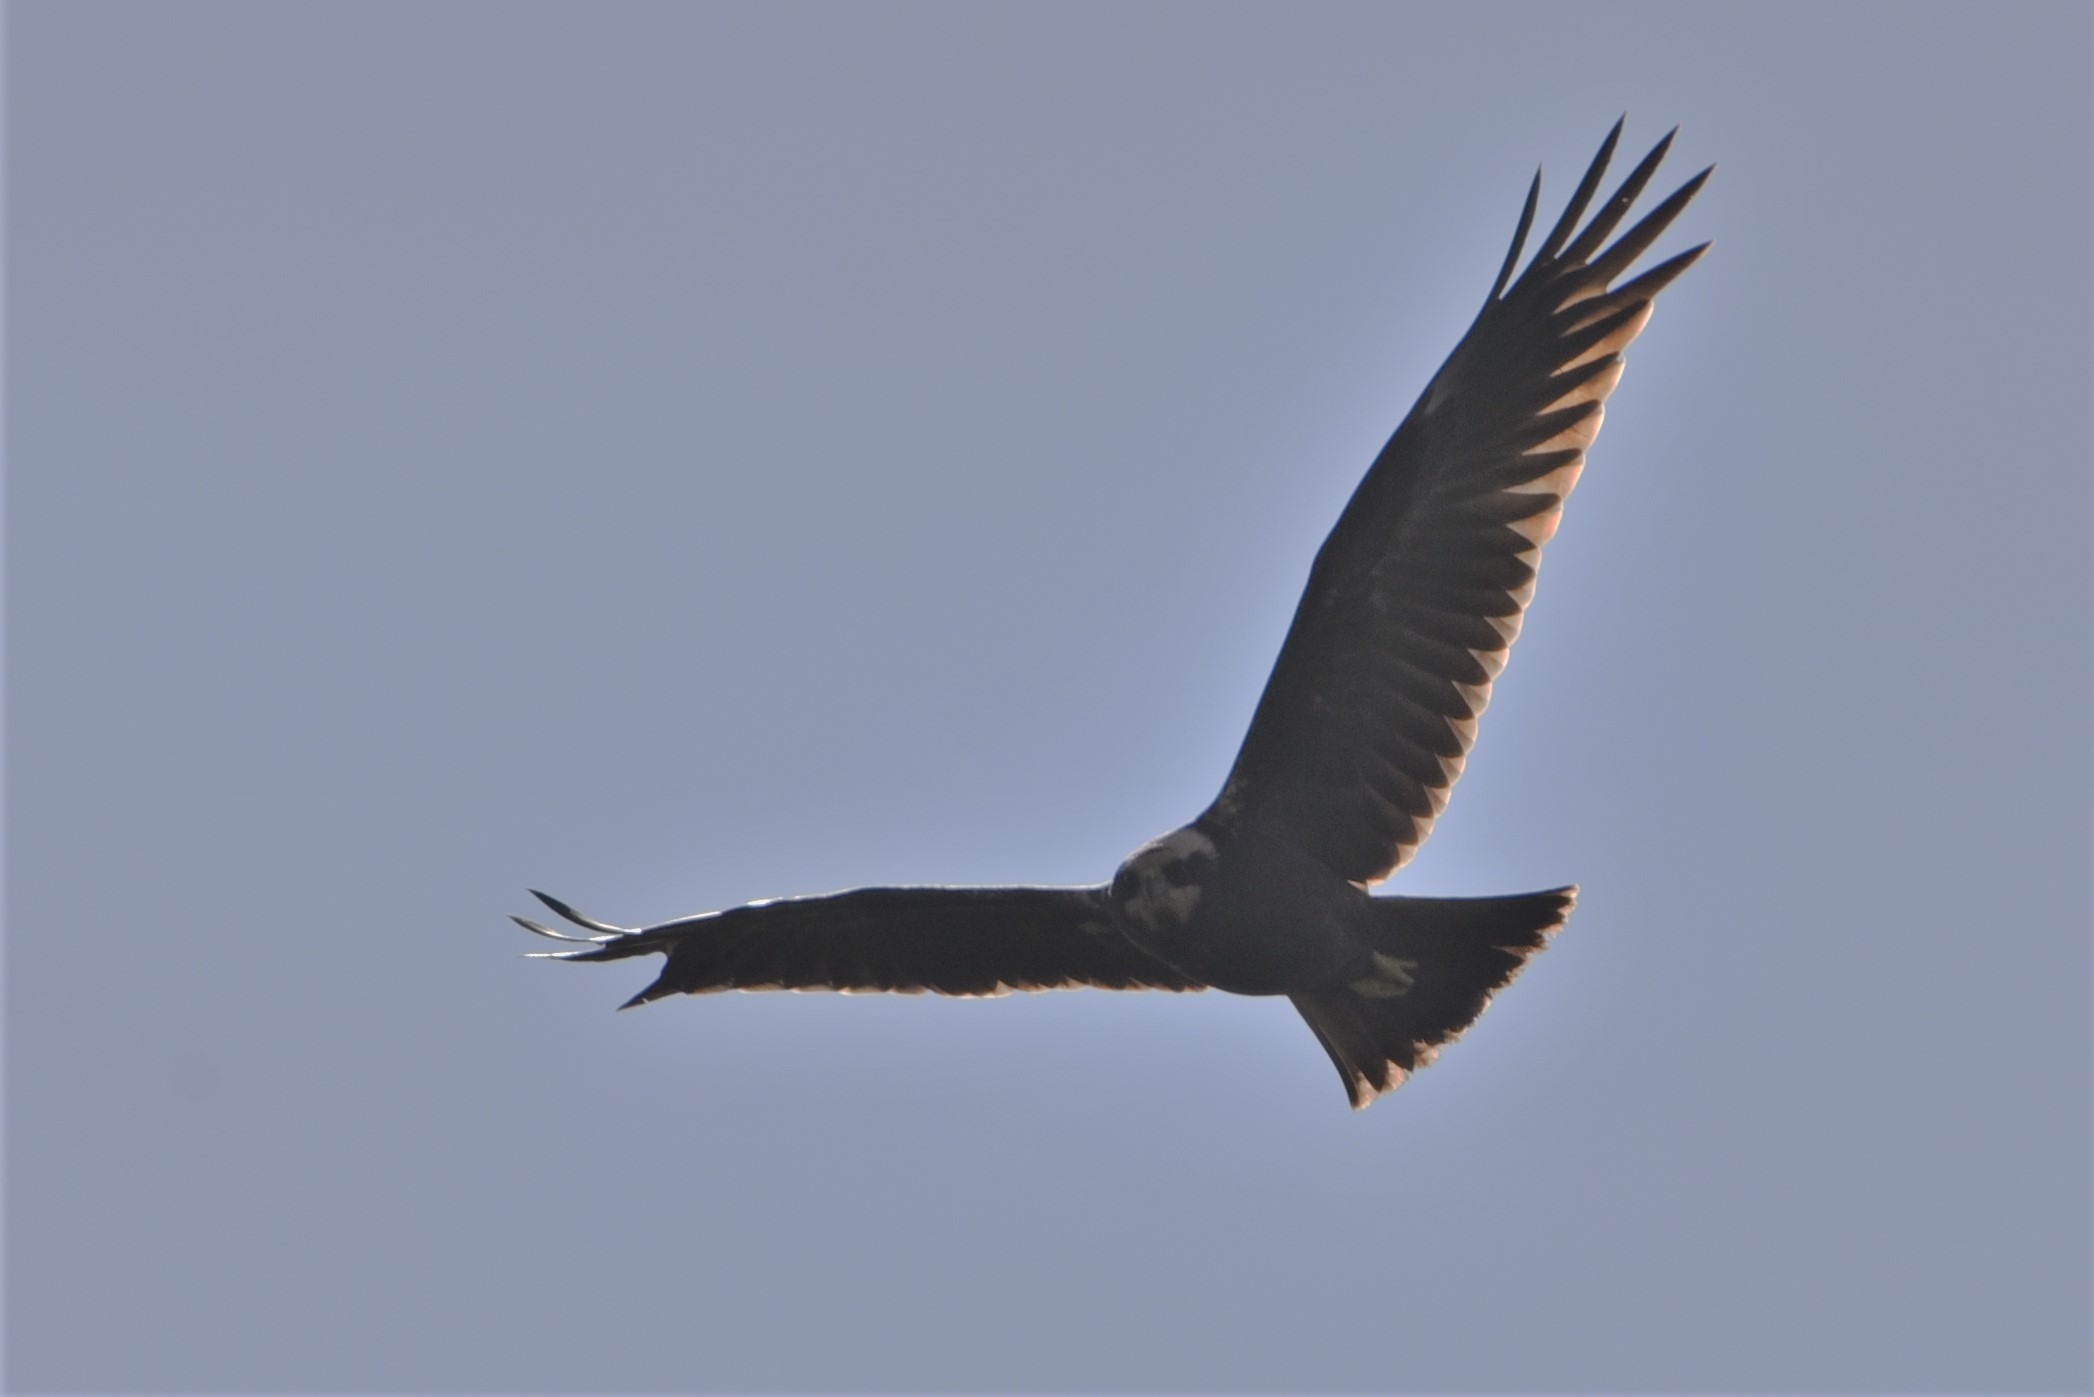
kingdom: Animalia
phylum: Chordata
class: Aves
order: Accipitriformes
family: Accipitridae
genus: Circus
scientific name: Circus aeruginosus
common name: Rørhøg
